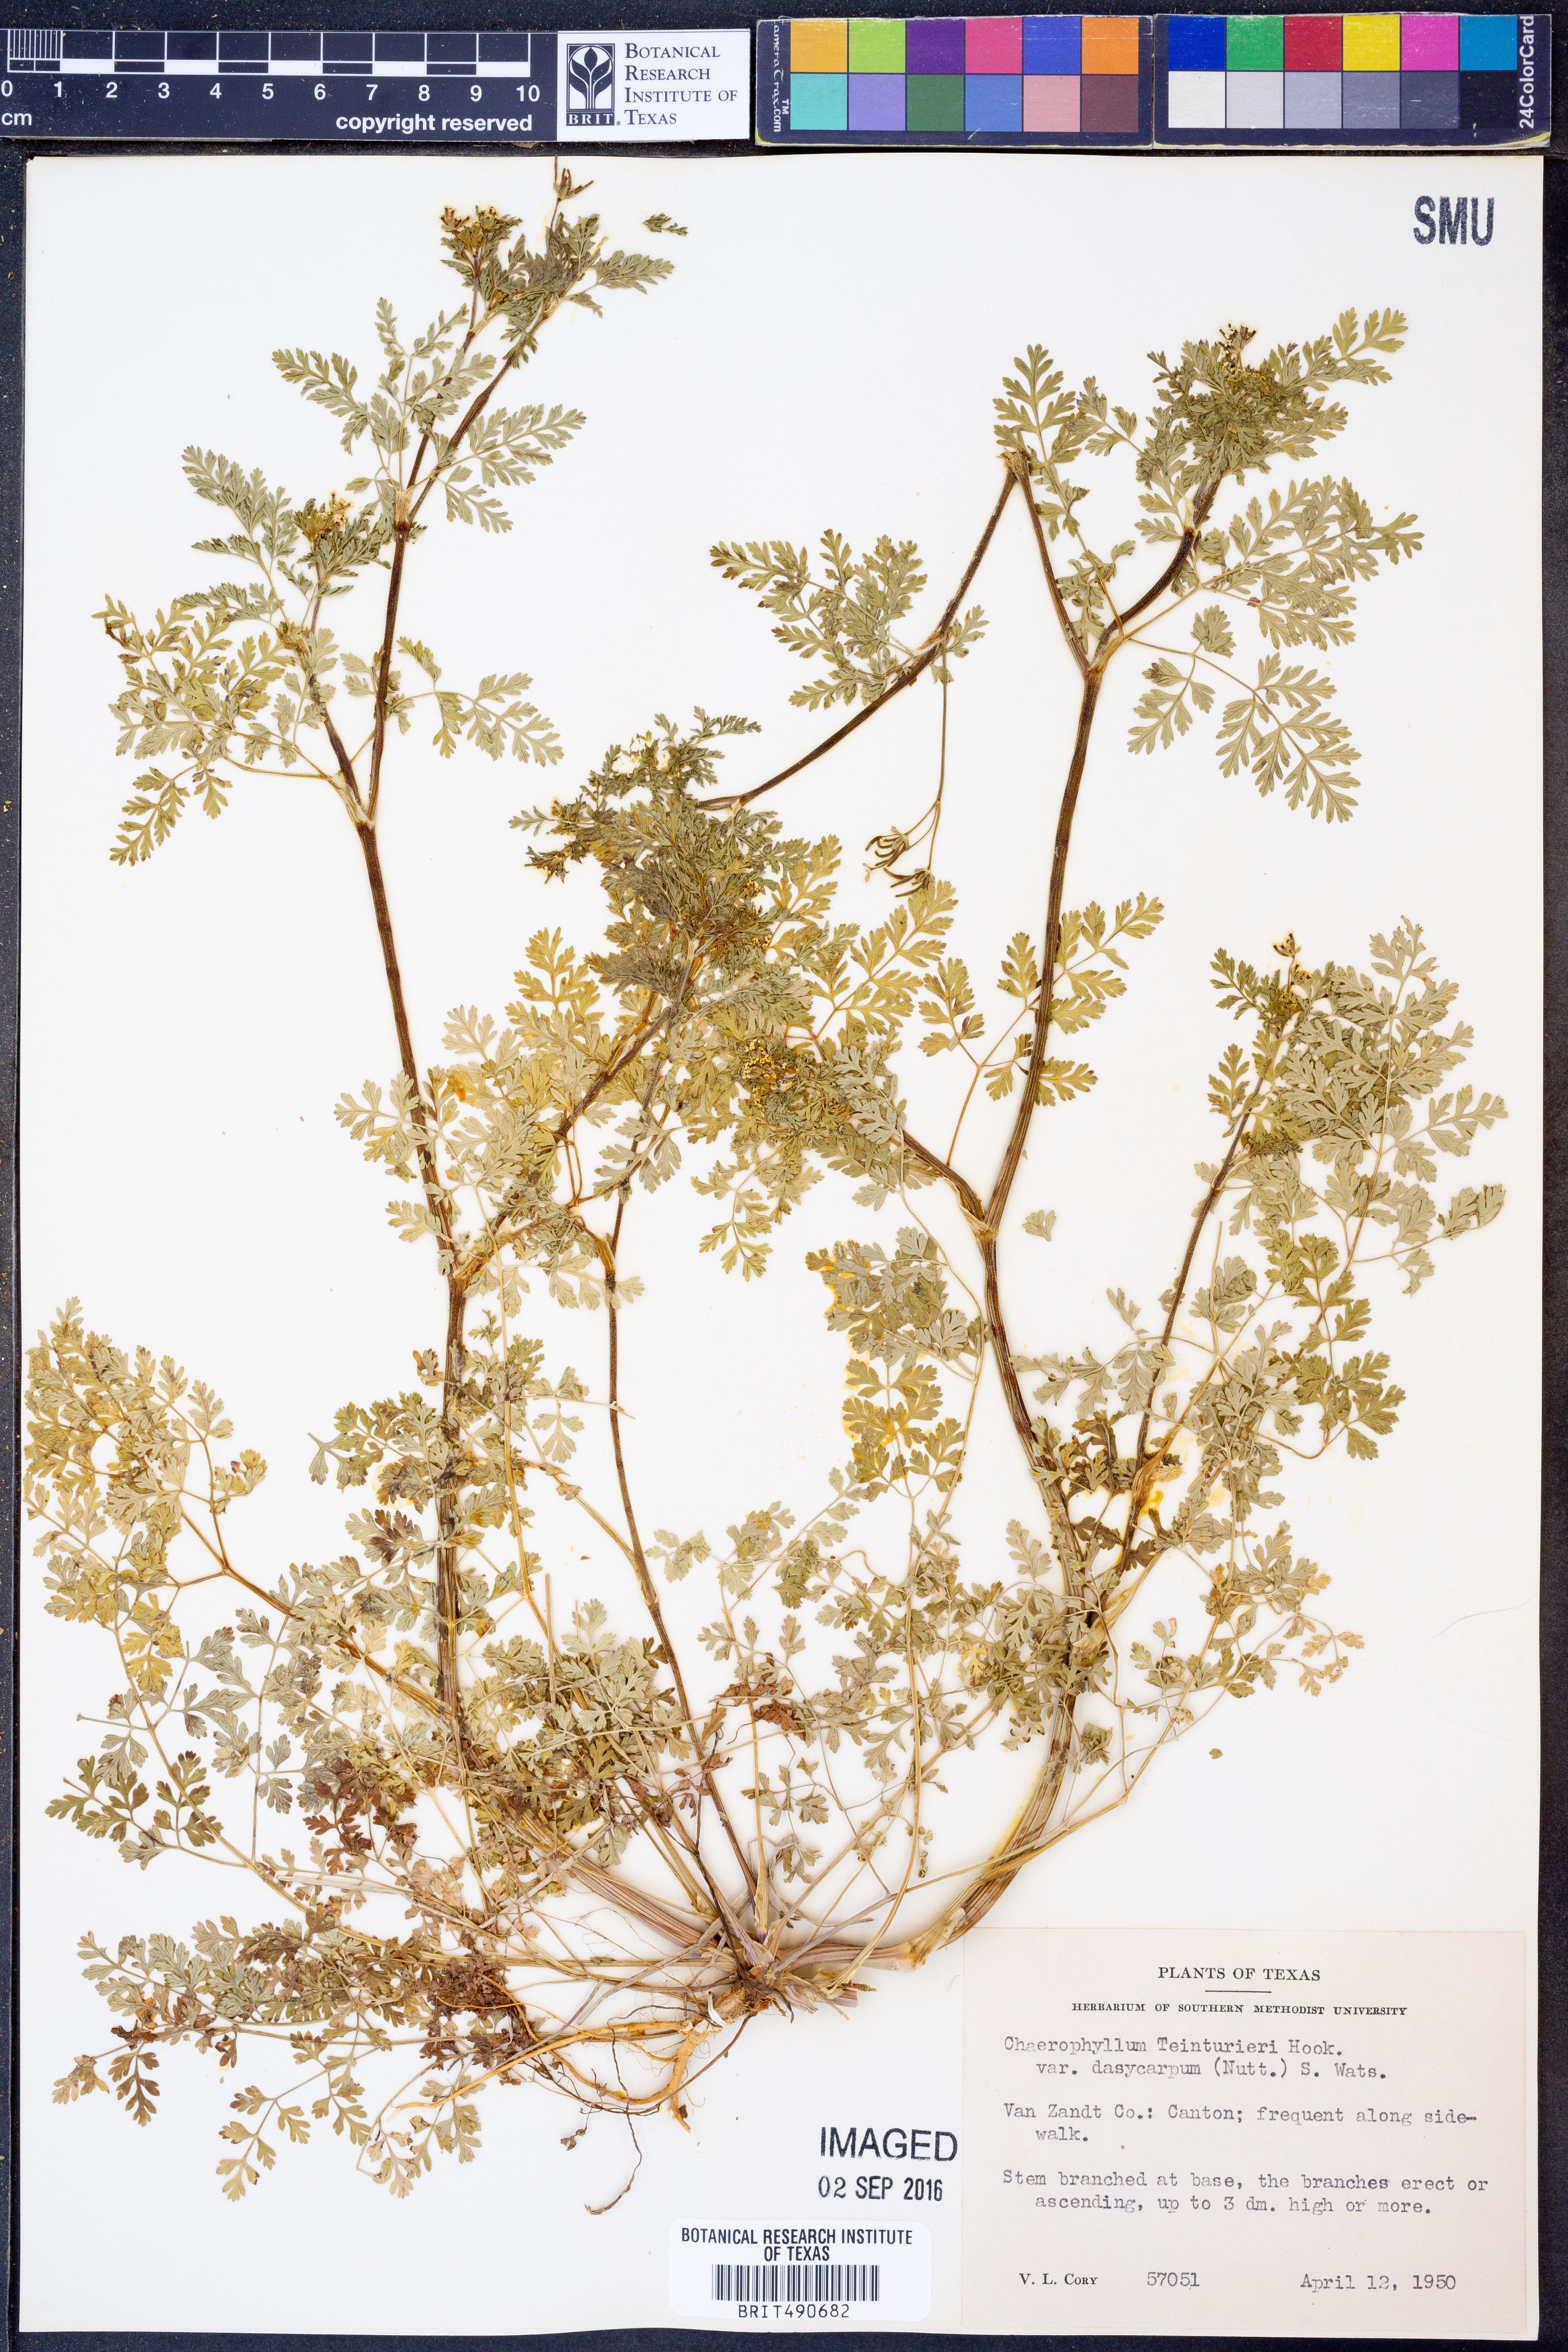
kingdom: Plantae
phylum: Tracheophyta
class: Magnoliopsida
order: Apiales
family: Apiaceae
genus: Chaerophyllum
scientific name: Chaerophyllum dasycarpum
